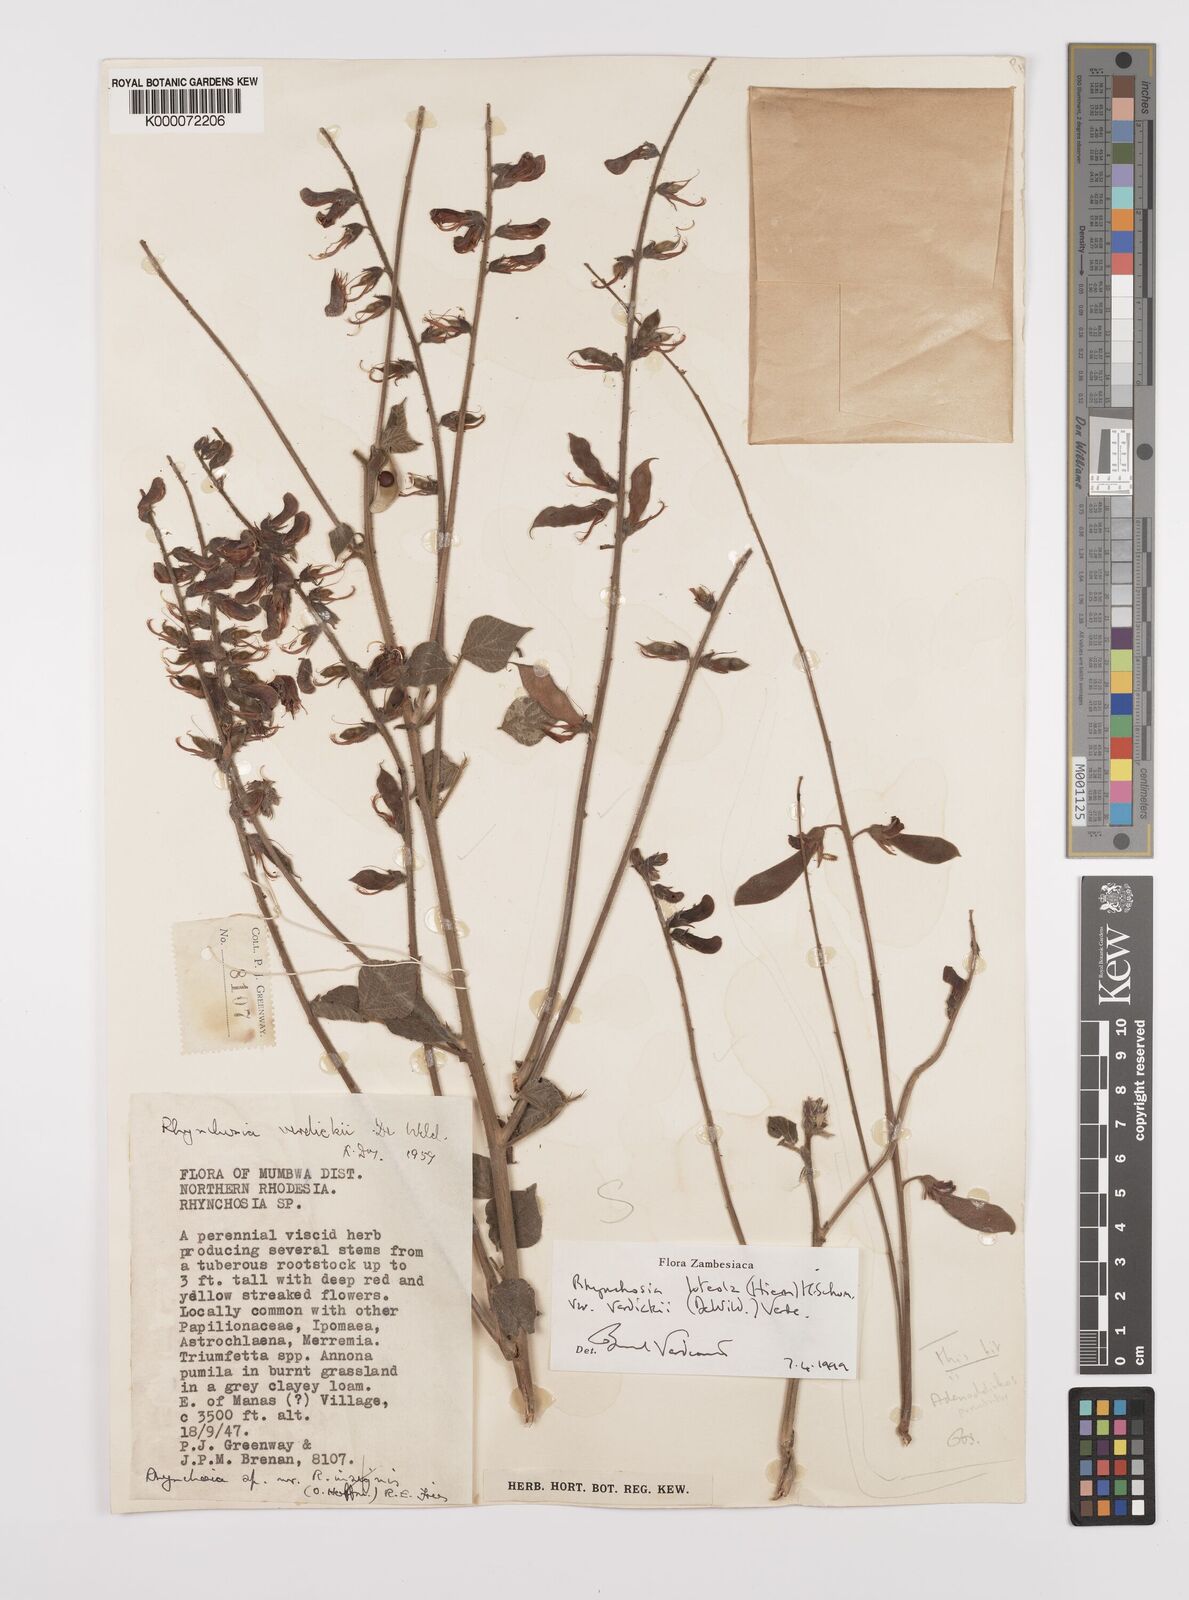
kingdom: Plantae
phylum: Tracheophyta
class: Magnoliopsida
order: Fabales
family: Fabaceae
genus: Rhynchosia
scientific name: Rhynchosia luteola
